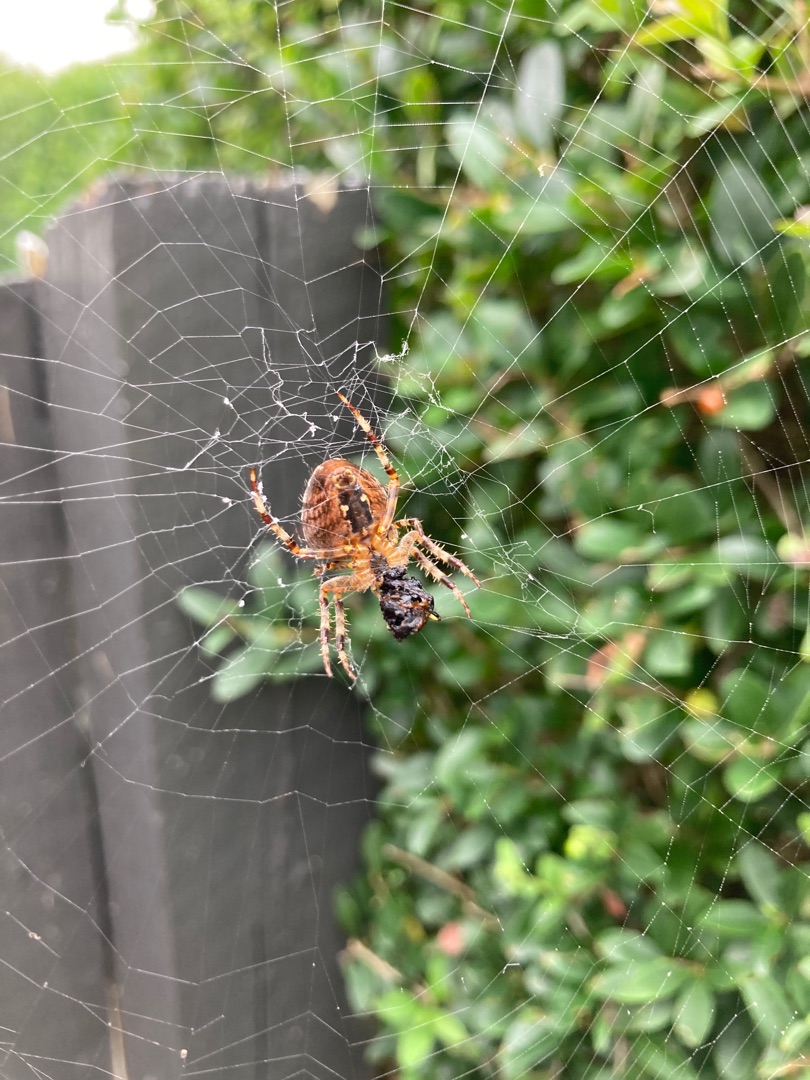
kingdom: Animalia
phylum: Arthropoda
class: Arachnida
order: Araneae
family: Araneidae
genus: Araneus
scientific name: Araneus diadematus
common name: Korsedderkop
